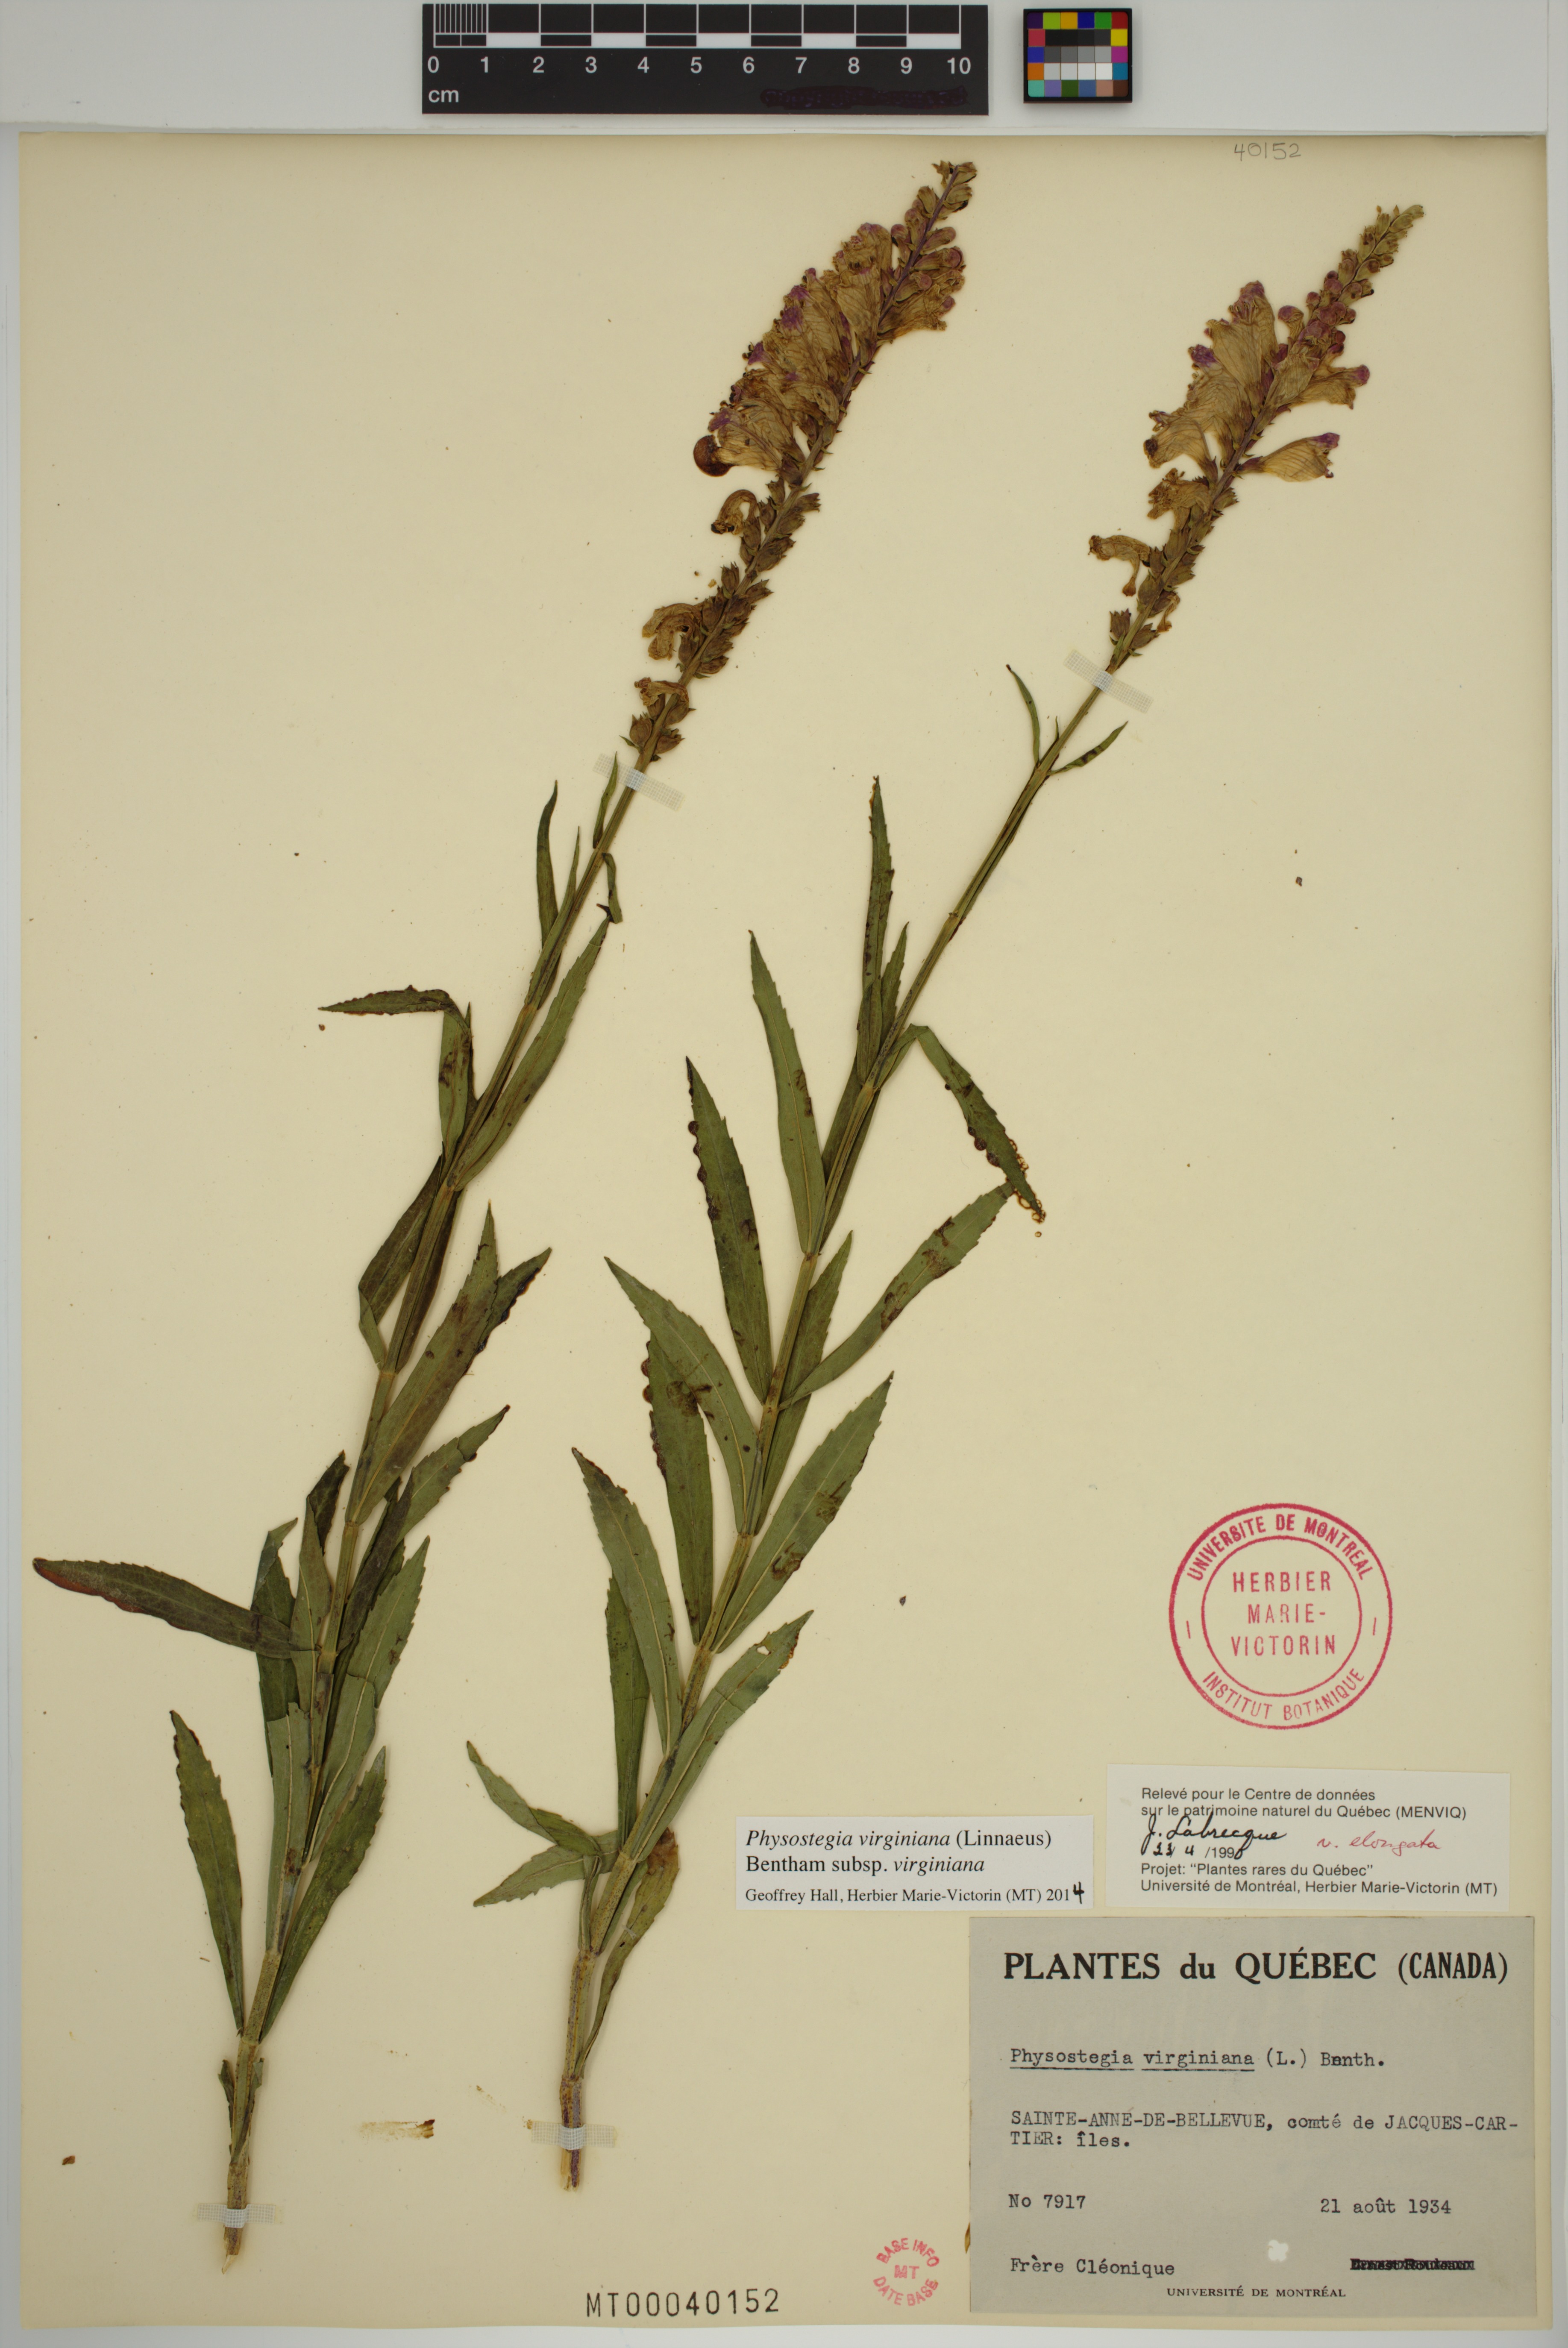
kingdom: Plantae
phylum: Tracheophyta
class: Magnoliopsida
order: Lamiales
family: Lamiaceae
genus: Physostegia
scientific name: Physostegia virginiana
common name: Obedient-plant
